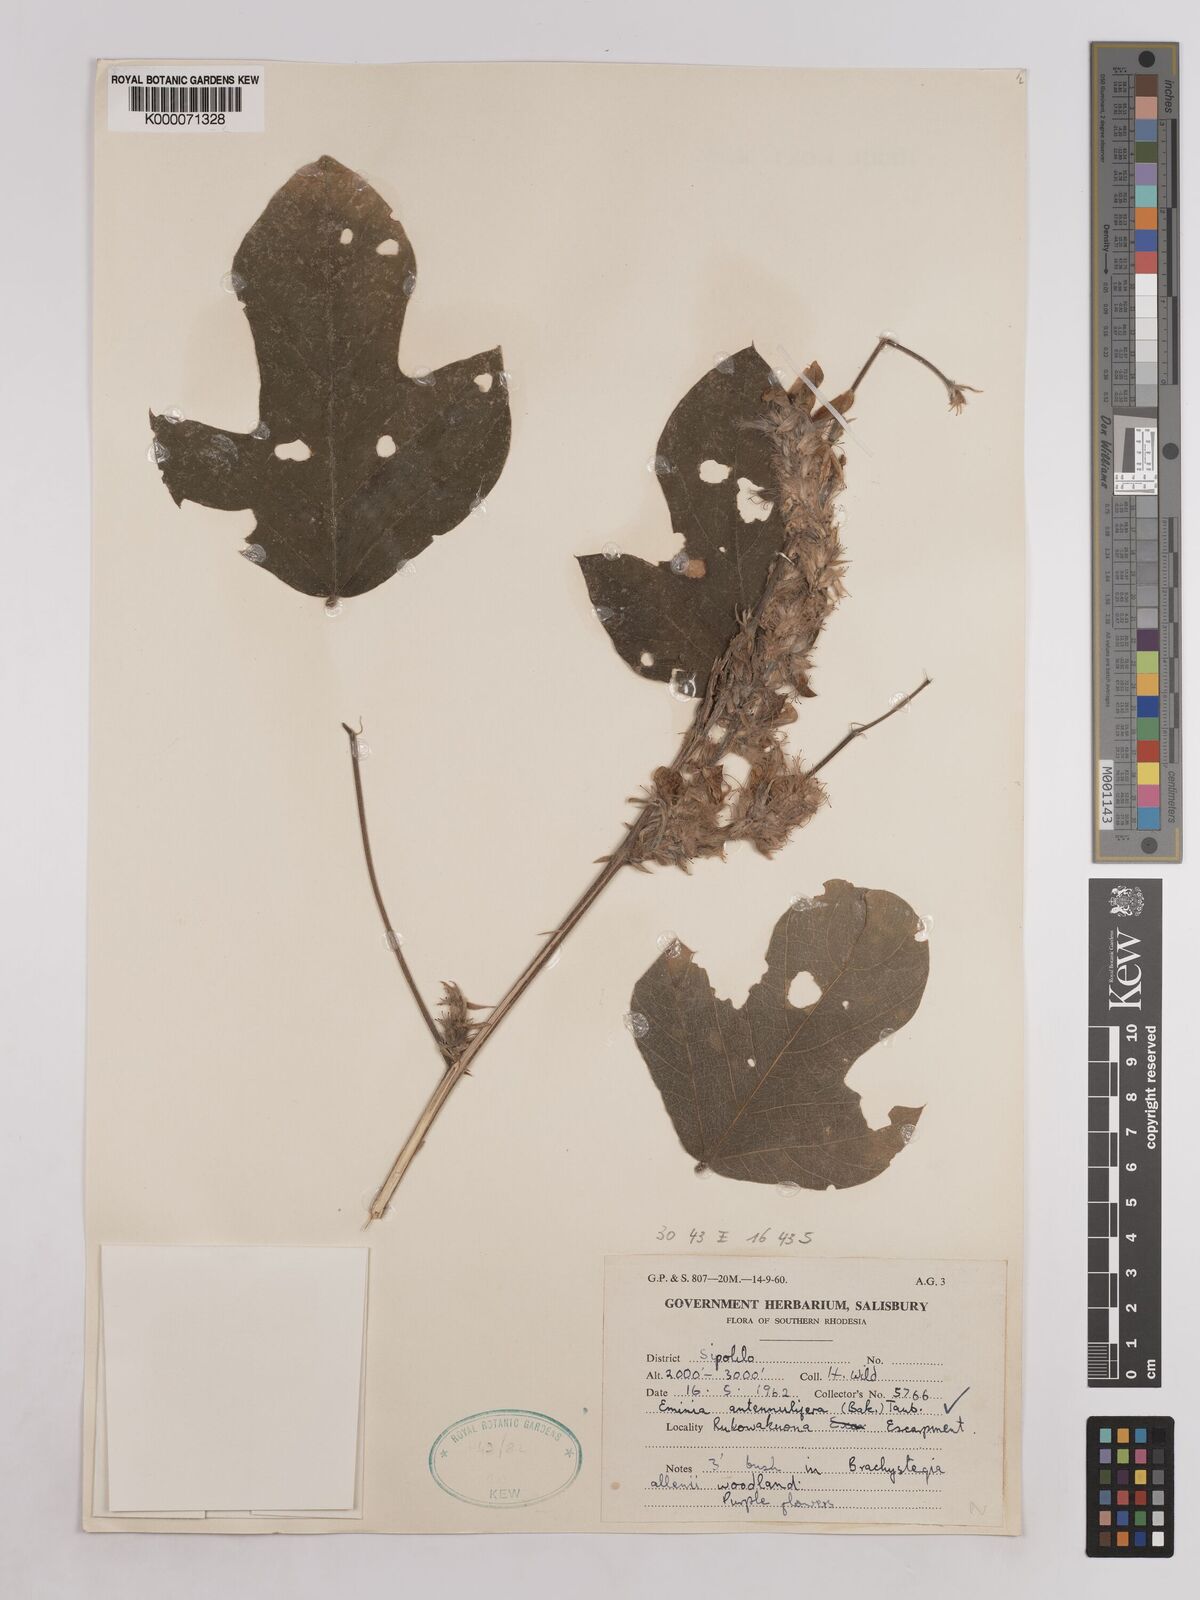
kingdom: Plantae
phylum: Tracheophyta
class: Magnoliopsida
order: Fabales
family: Fabaceae
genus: Eminia
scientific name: Eminia antennulifera
